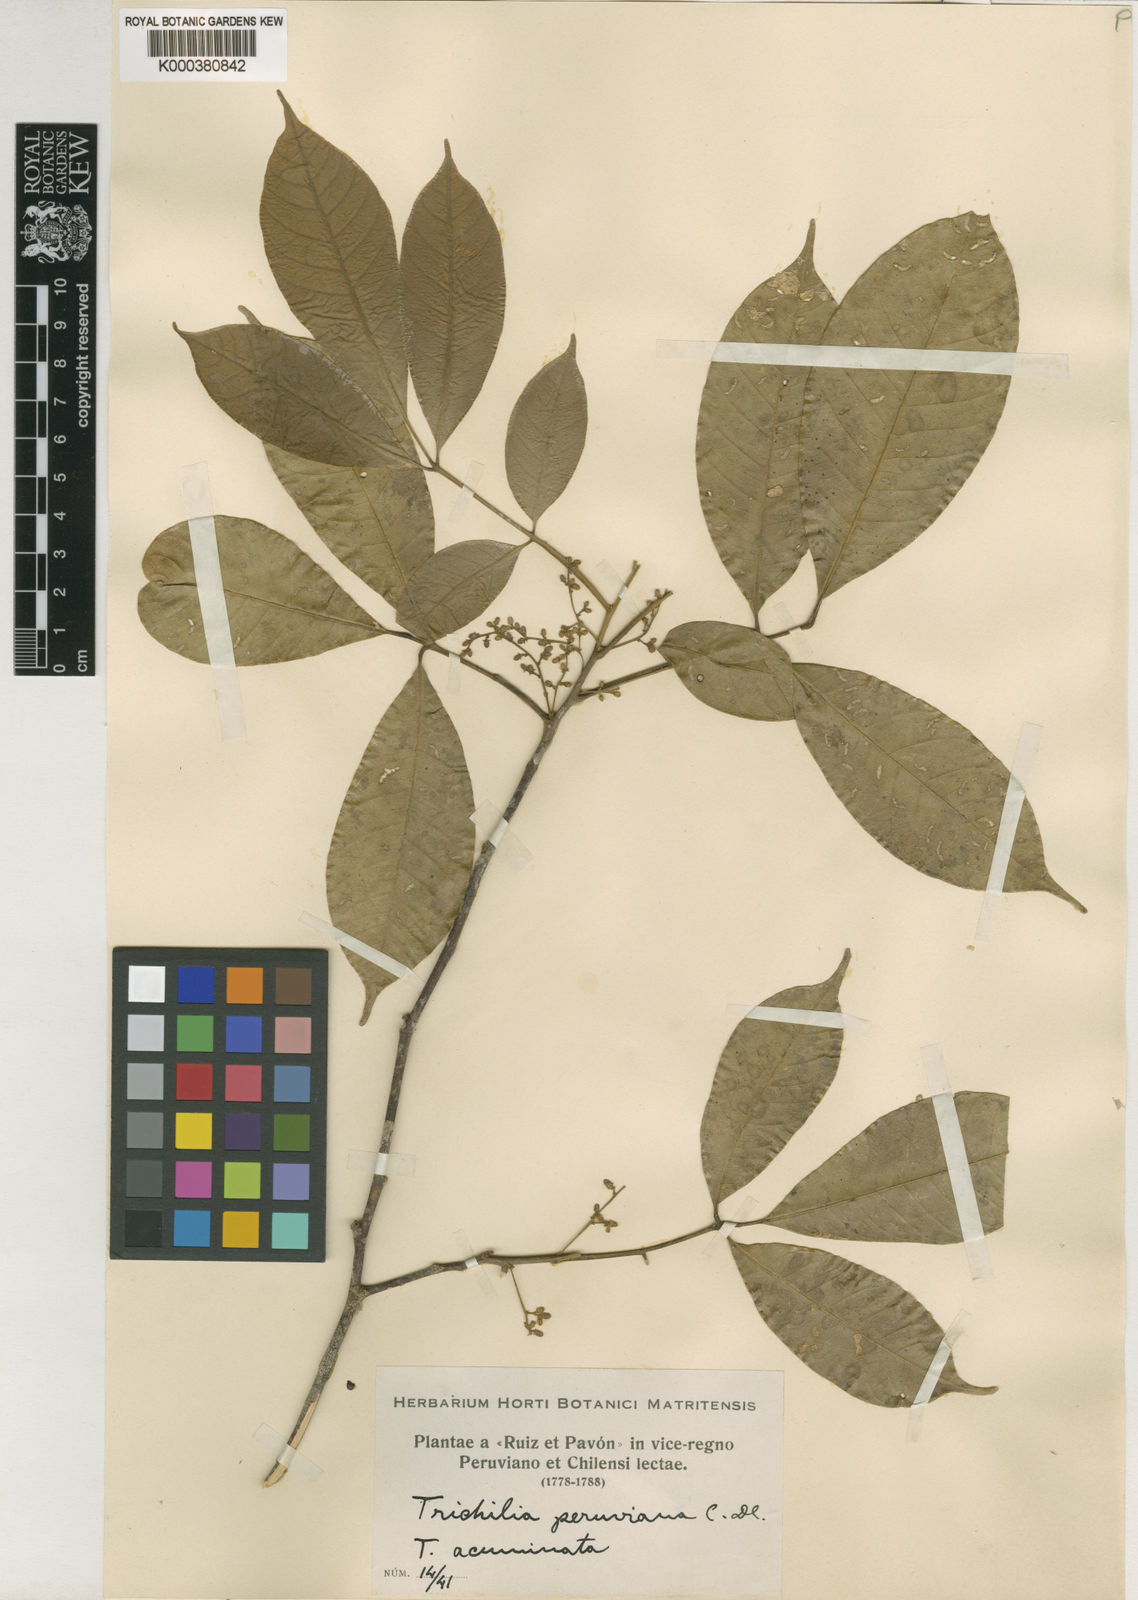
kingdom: Plantae
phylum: Tracheophyta
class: Magnoliopsida
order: Sapindales
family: Meliaceae
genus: Trichilia
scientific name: Trichilia pallida
